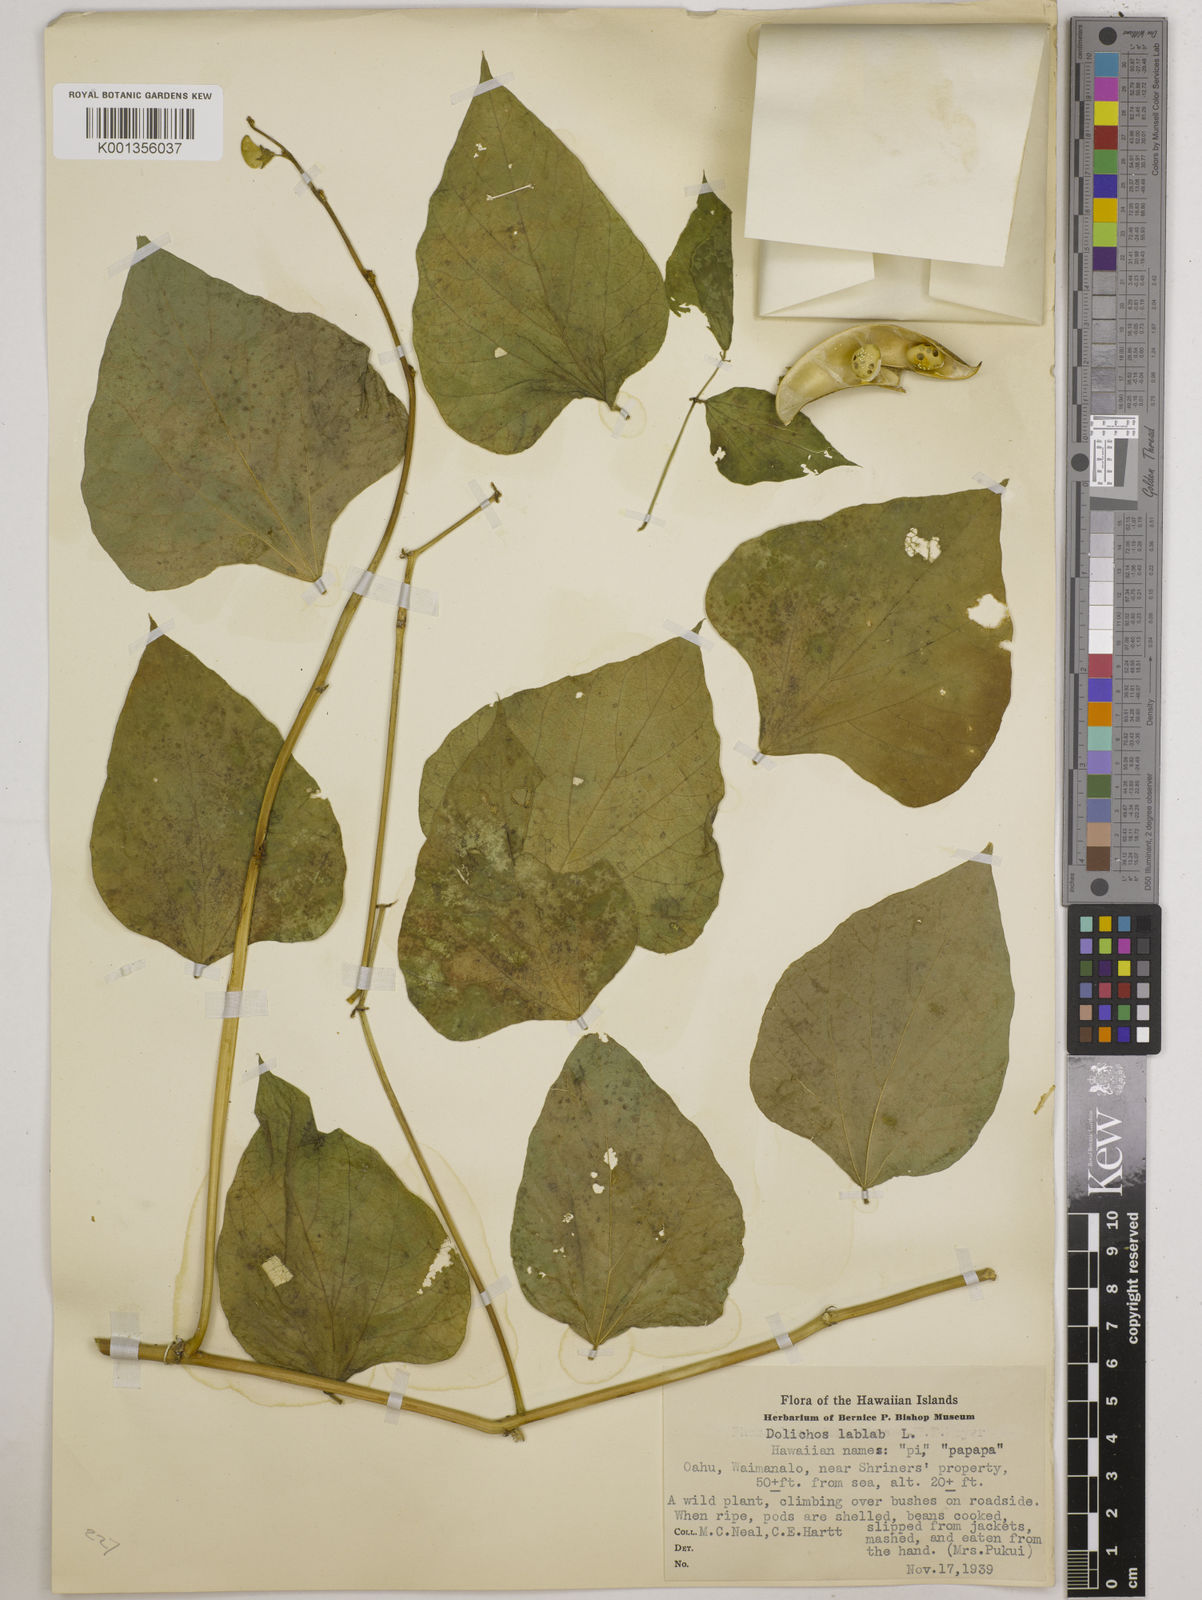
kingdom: Plantae
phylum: Tracheophyta
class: Magnoliopsida
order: Fabales
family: Fabaceae
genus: Lablab
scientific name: Lablab purpureus
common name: Lablab-bean
